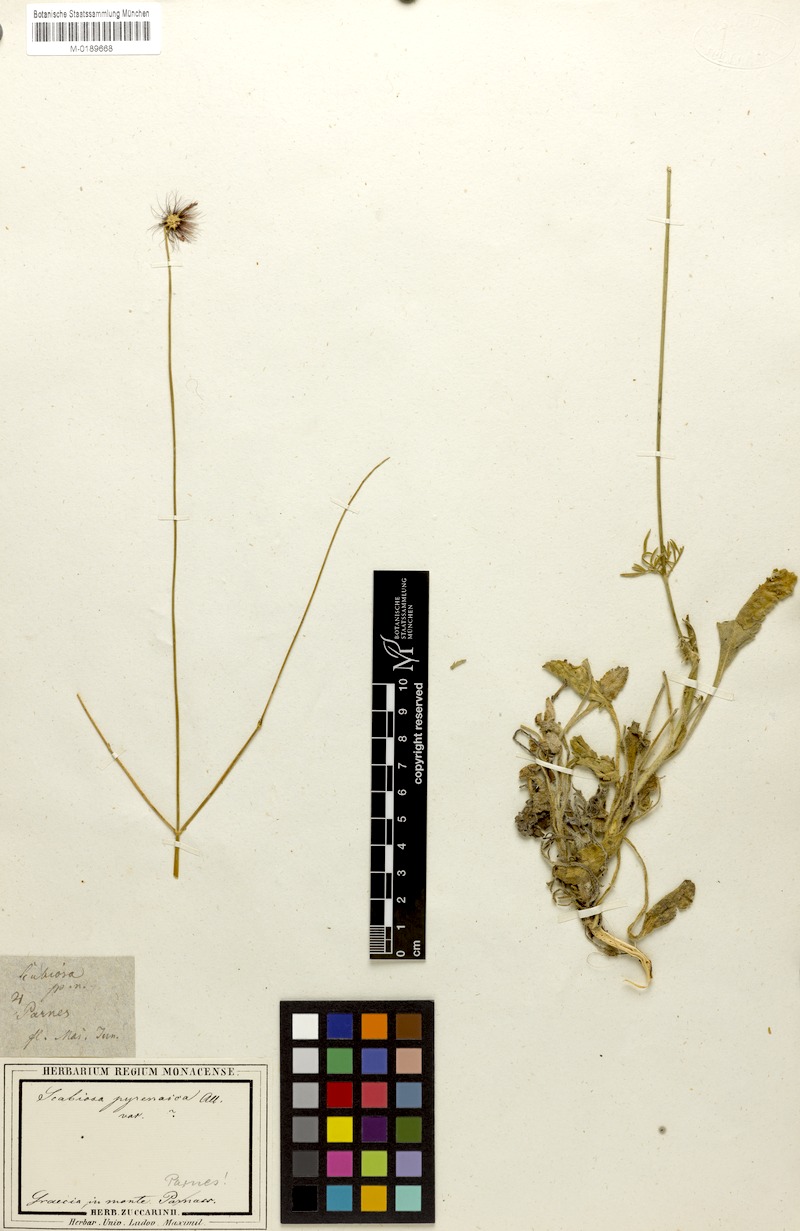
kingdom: Plantae
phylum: Tracheophyta
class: Magnoliopsida
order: Dipsacales
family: Caprifoliaceae
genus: Scabiosa
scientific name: Scabiosa webbiana
